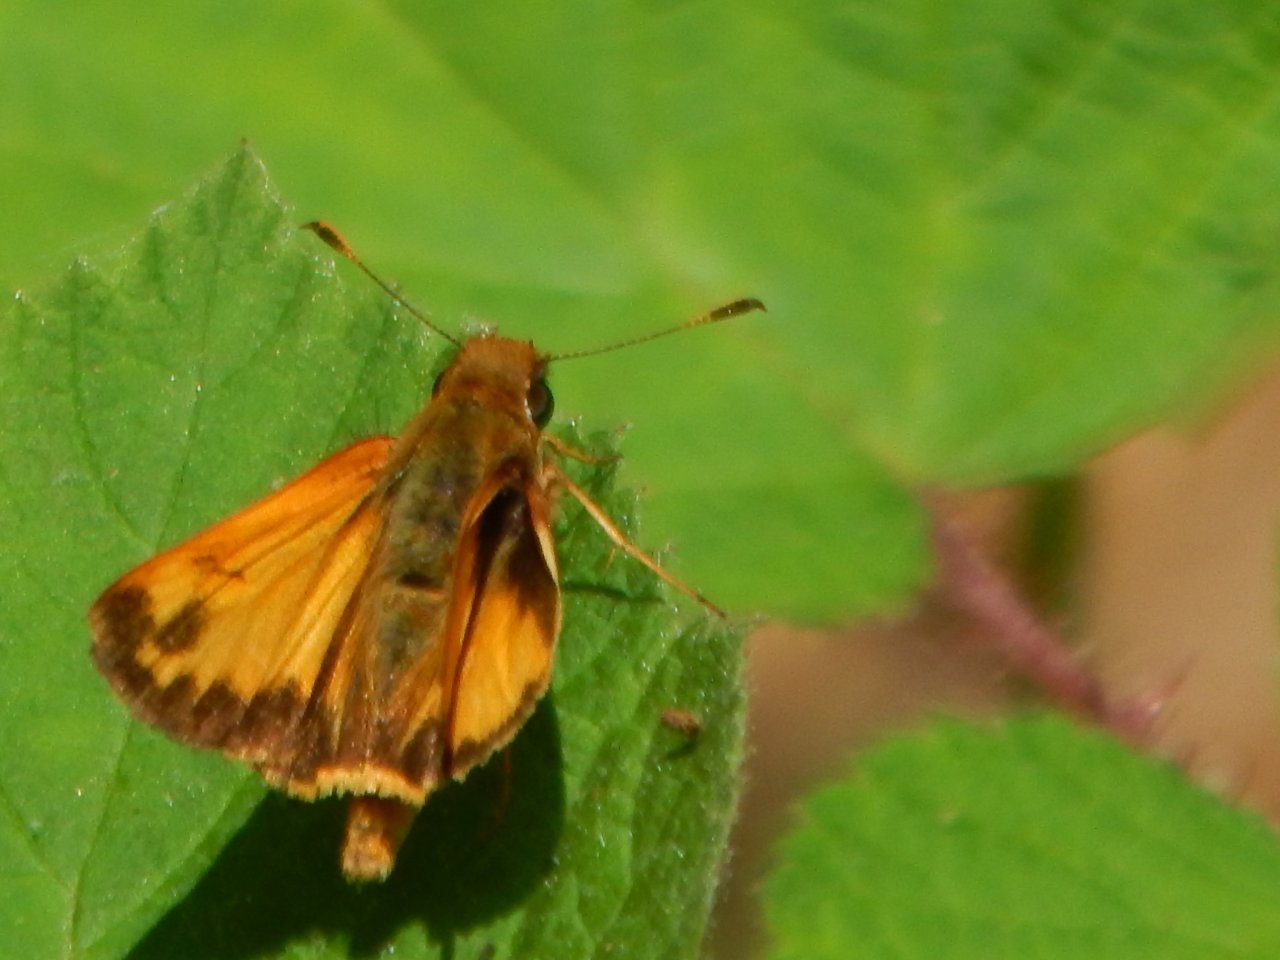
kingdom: Animalia
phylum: Arthropoda
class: Insecta
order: Lepidoptera
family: Hesperiidae
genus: Lon
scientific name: Lon hobomok
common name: Hobomok Skipper
